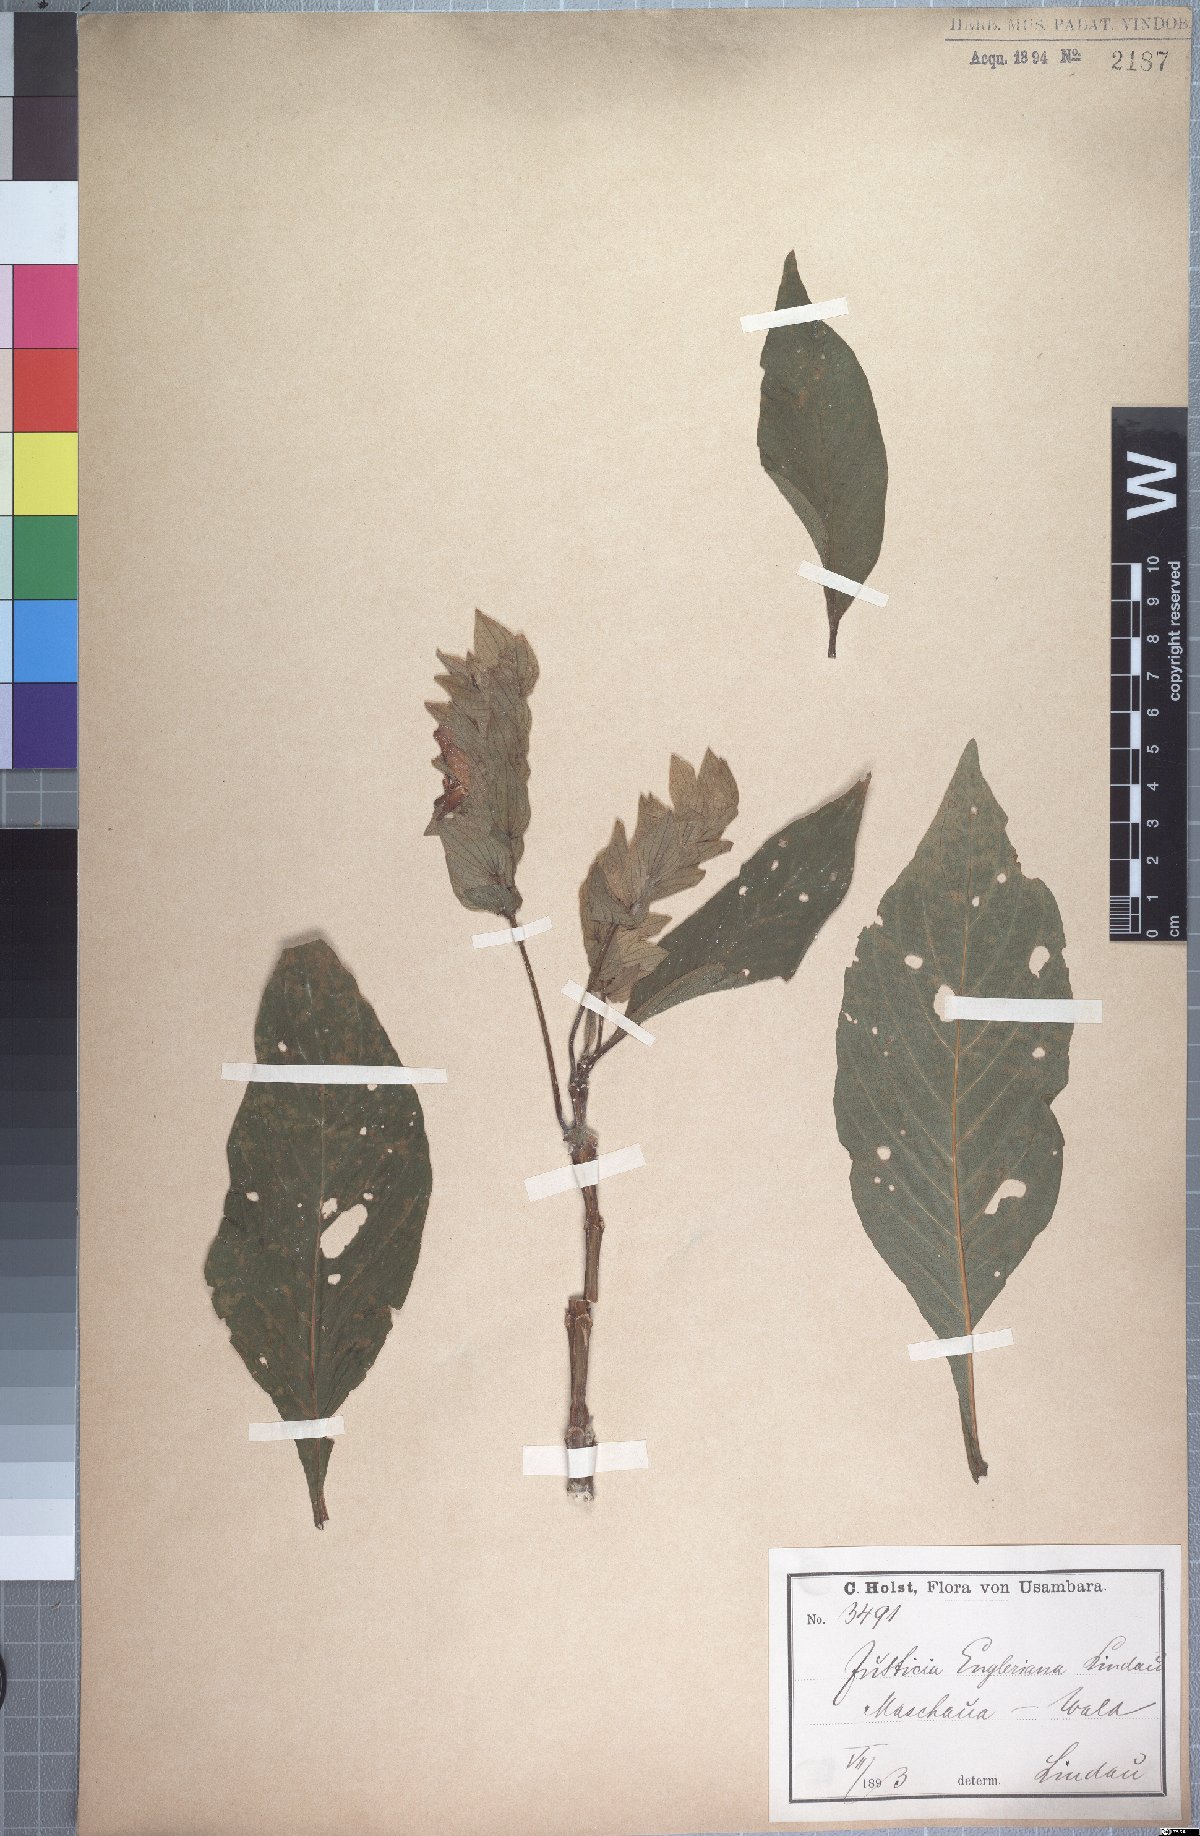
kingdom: Plantae
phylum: Tracheophyta
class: Magnoliopsida
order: Lamiales
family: Acanthaceae
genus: Justicia
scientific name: Justicia engleriana
